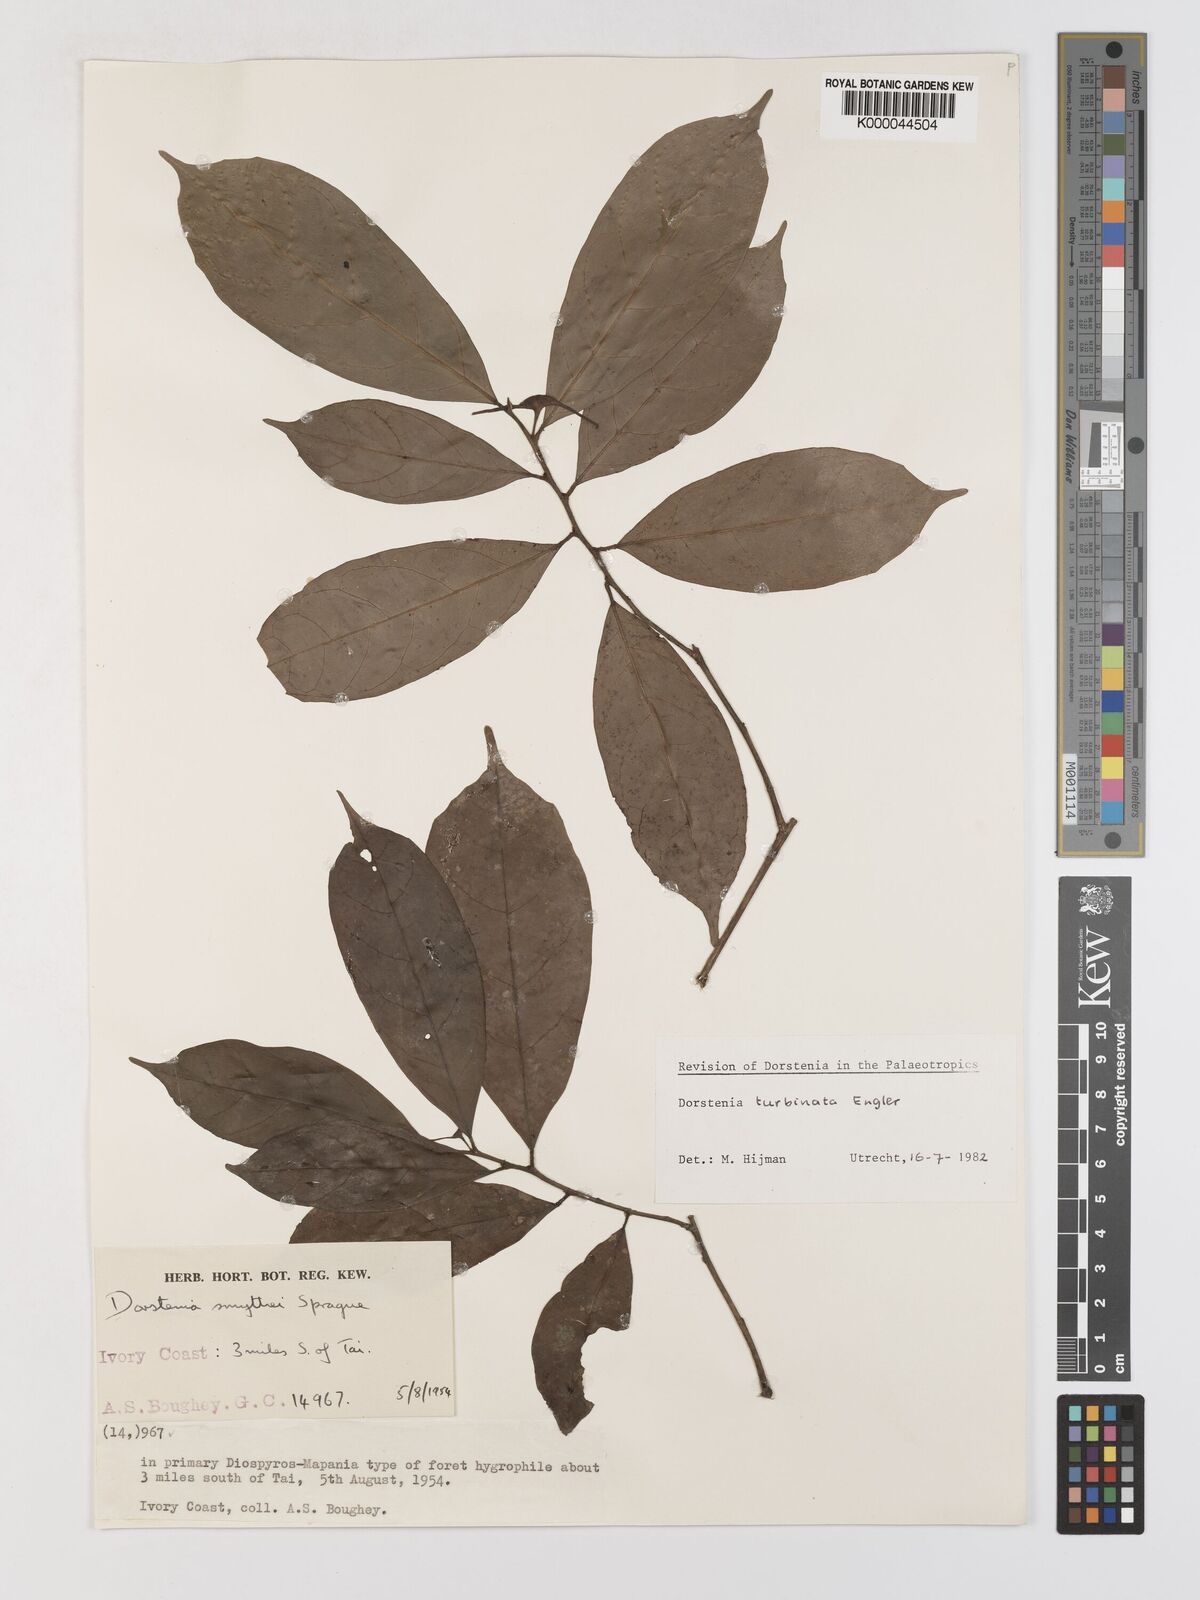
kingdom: Plantae
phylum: Tracheophyta
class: Magnoliopsida
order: Rosales
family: Moraceae
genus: Hijmania
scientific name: Hijmania turbinata
